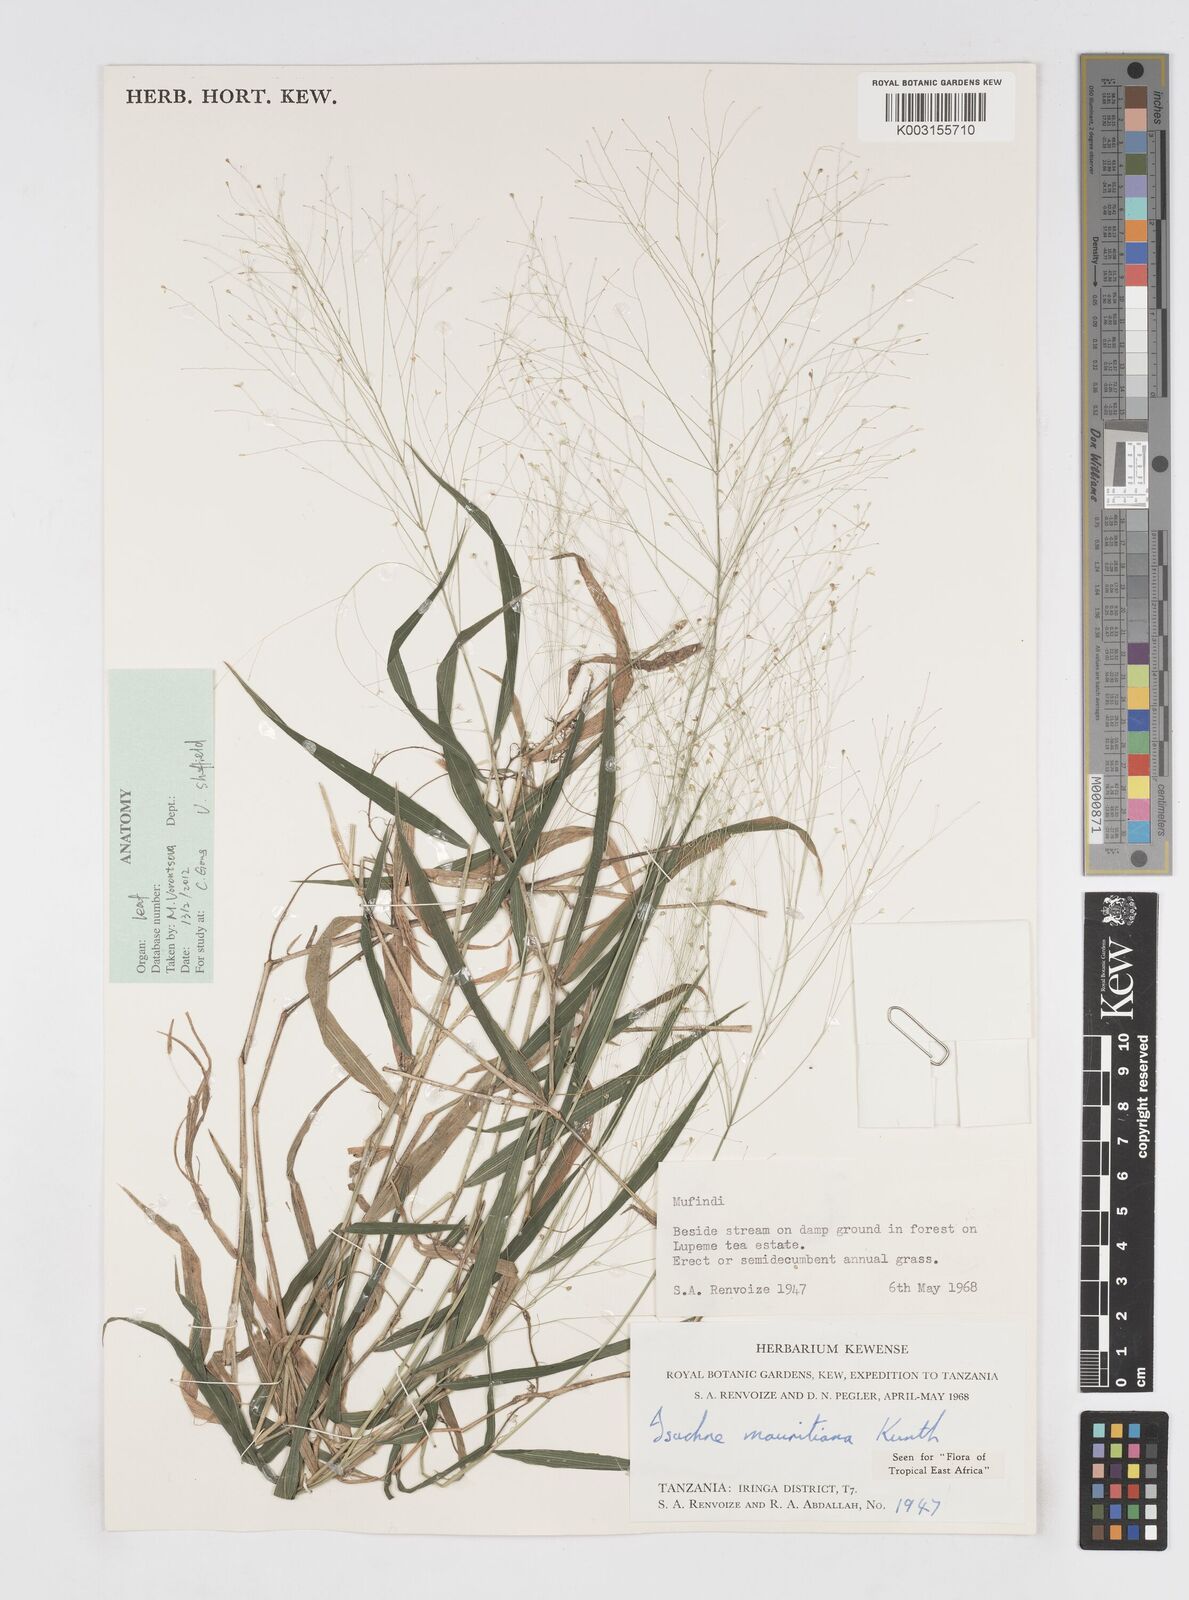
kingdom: Plantae
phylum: Tracheophyta
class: Liliopsida
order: Poales
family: Poaceae
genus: Isachne
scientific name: Isachne mauritiana
